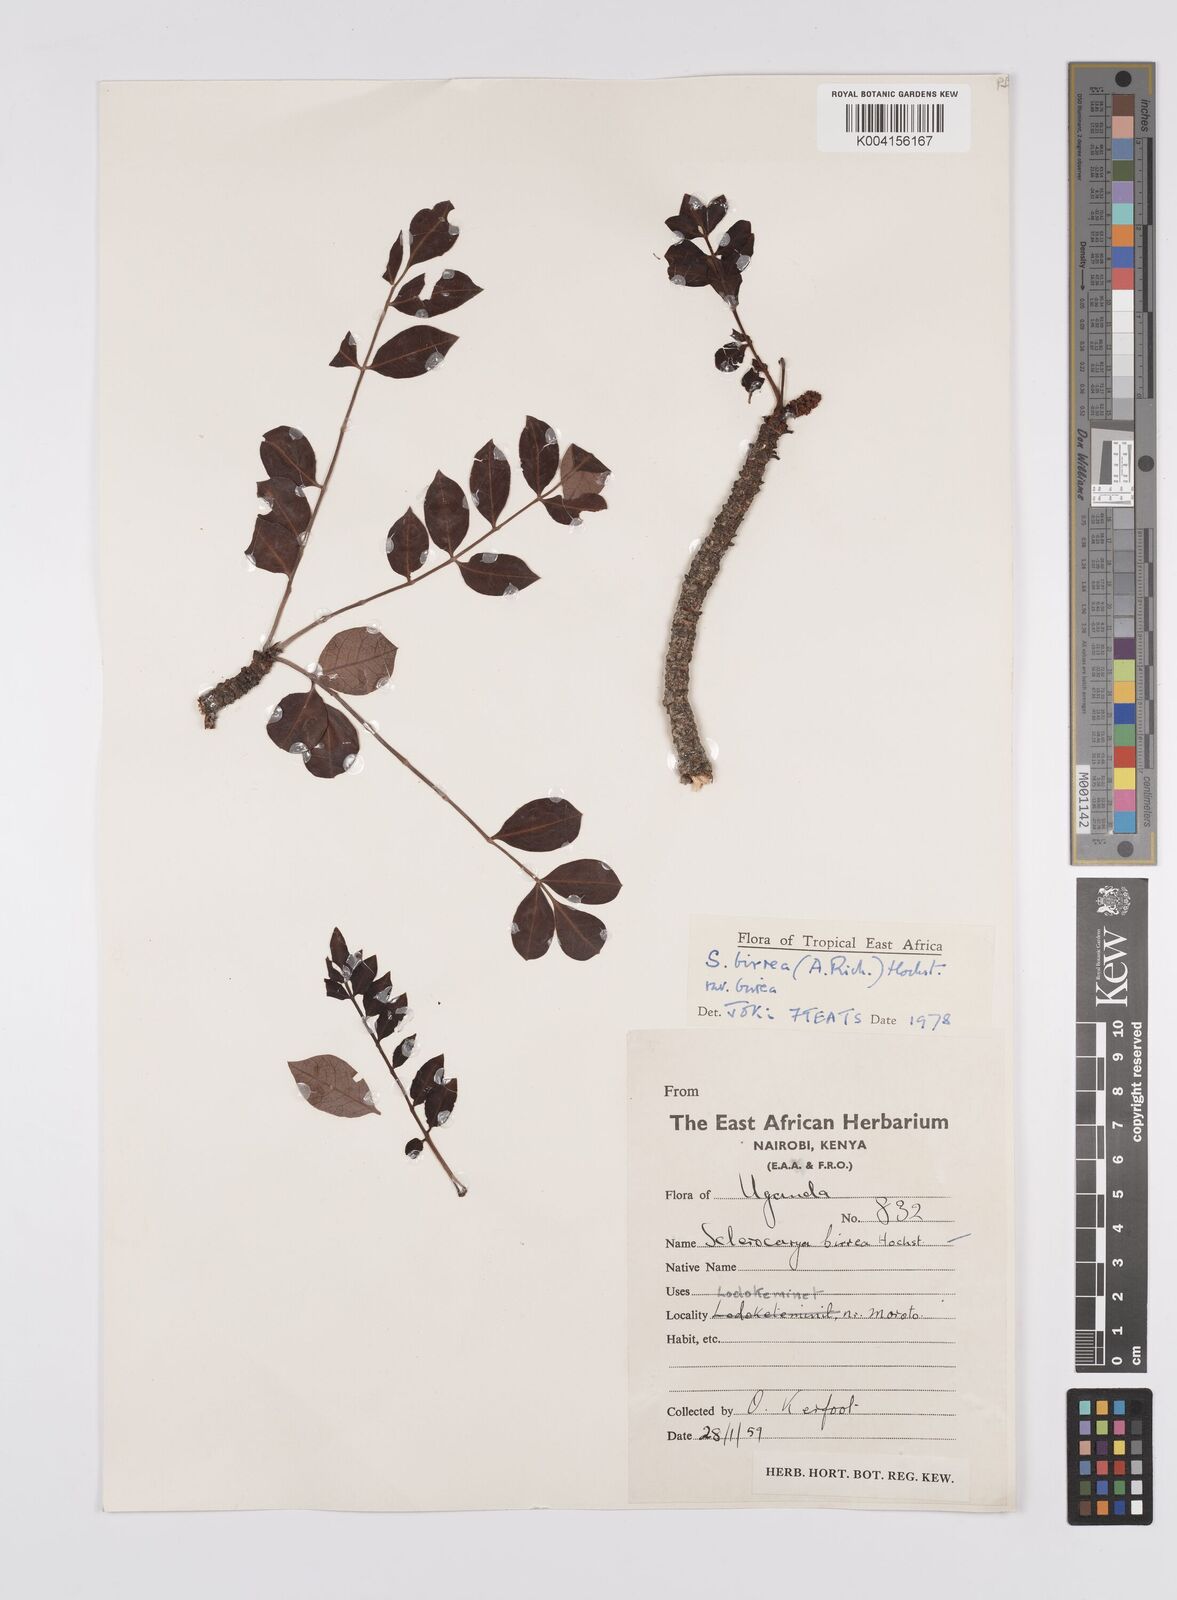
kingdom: Plantae
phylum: Tracheophyta
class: Magnoliopsida
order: Sapindales
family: Anacardiaceae
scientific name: Anacardiaceae
